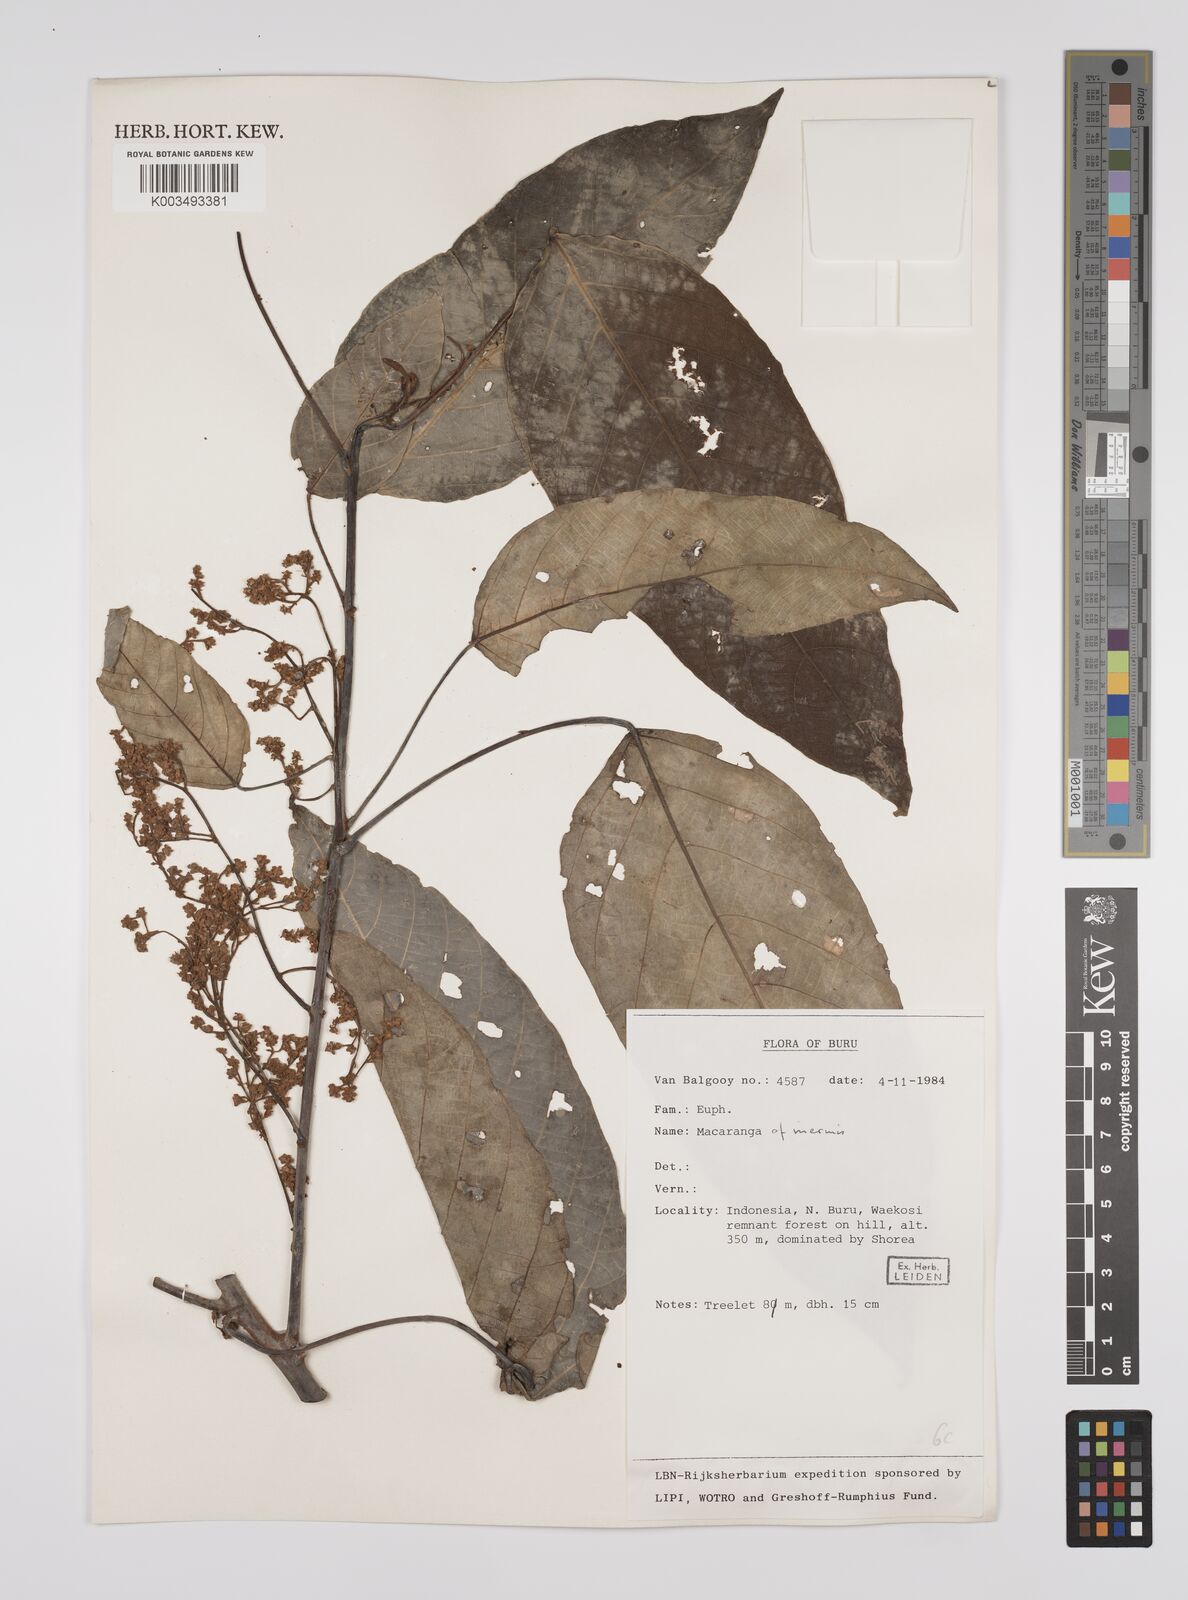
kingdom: Plantae
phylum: Tracheophyta
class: Magnoliopsida
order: Malpighiales
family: Euphorbiaceae
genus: Macaranga
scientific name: Macaranga inermis
